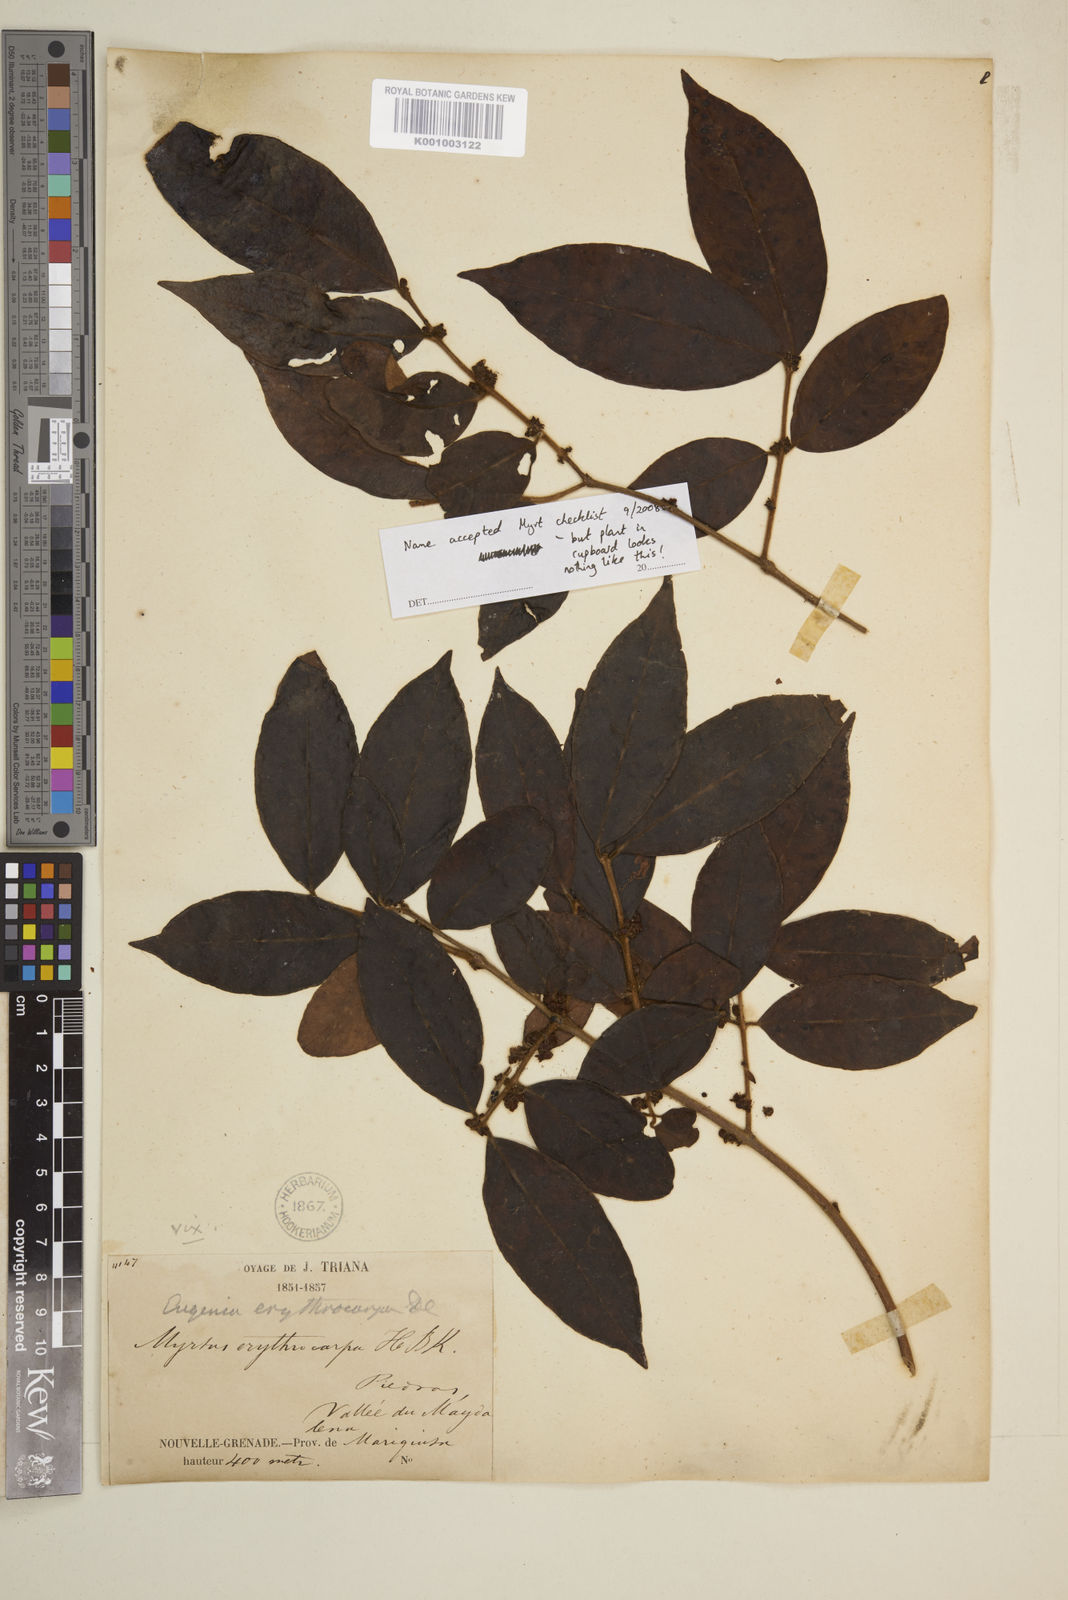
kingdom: Plantae
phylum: Tracheophyta
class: Magnoliopsida
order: Myrtales
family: Myrtaceae
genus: Eugenia
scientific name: Eugenia venezuelensis
